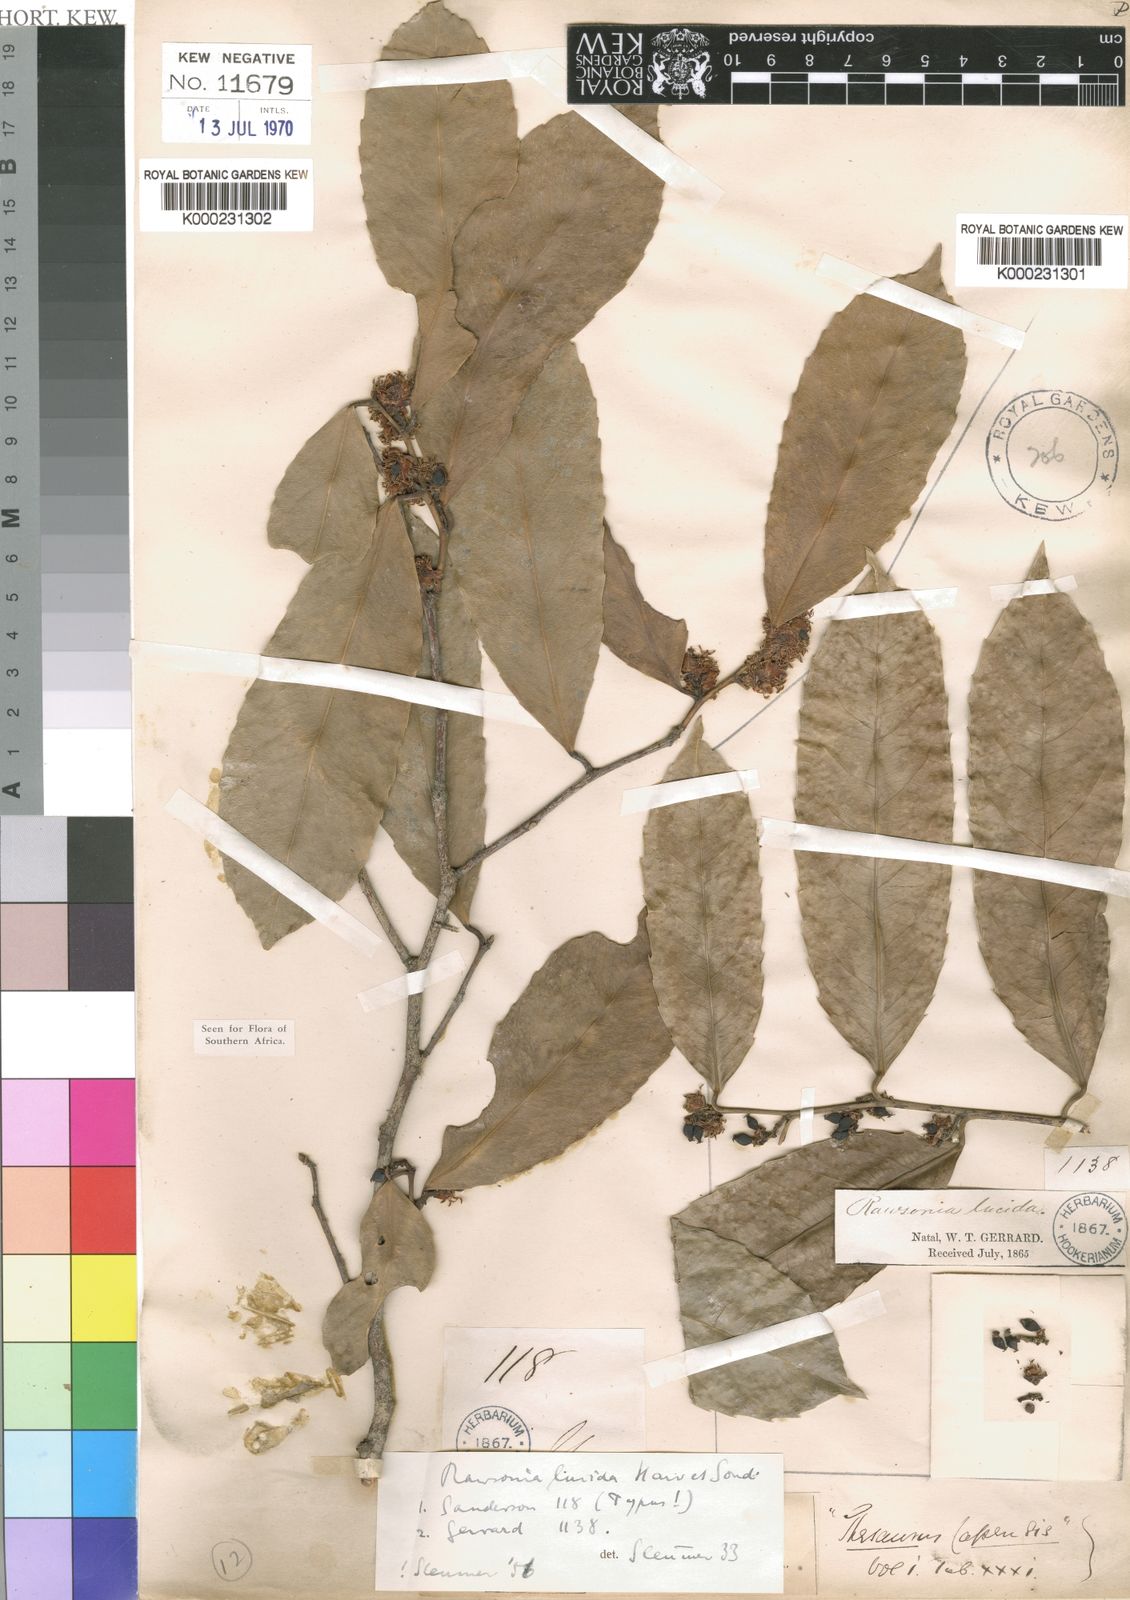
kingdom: Plantae
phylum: Tracheophyta
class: Magnoliopsida
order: Malpighiales
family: Achariaceae
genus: Rawsonia
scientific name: Rawsonia lucida
